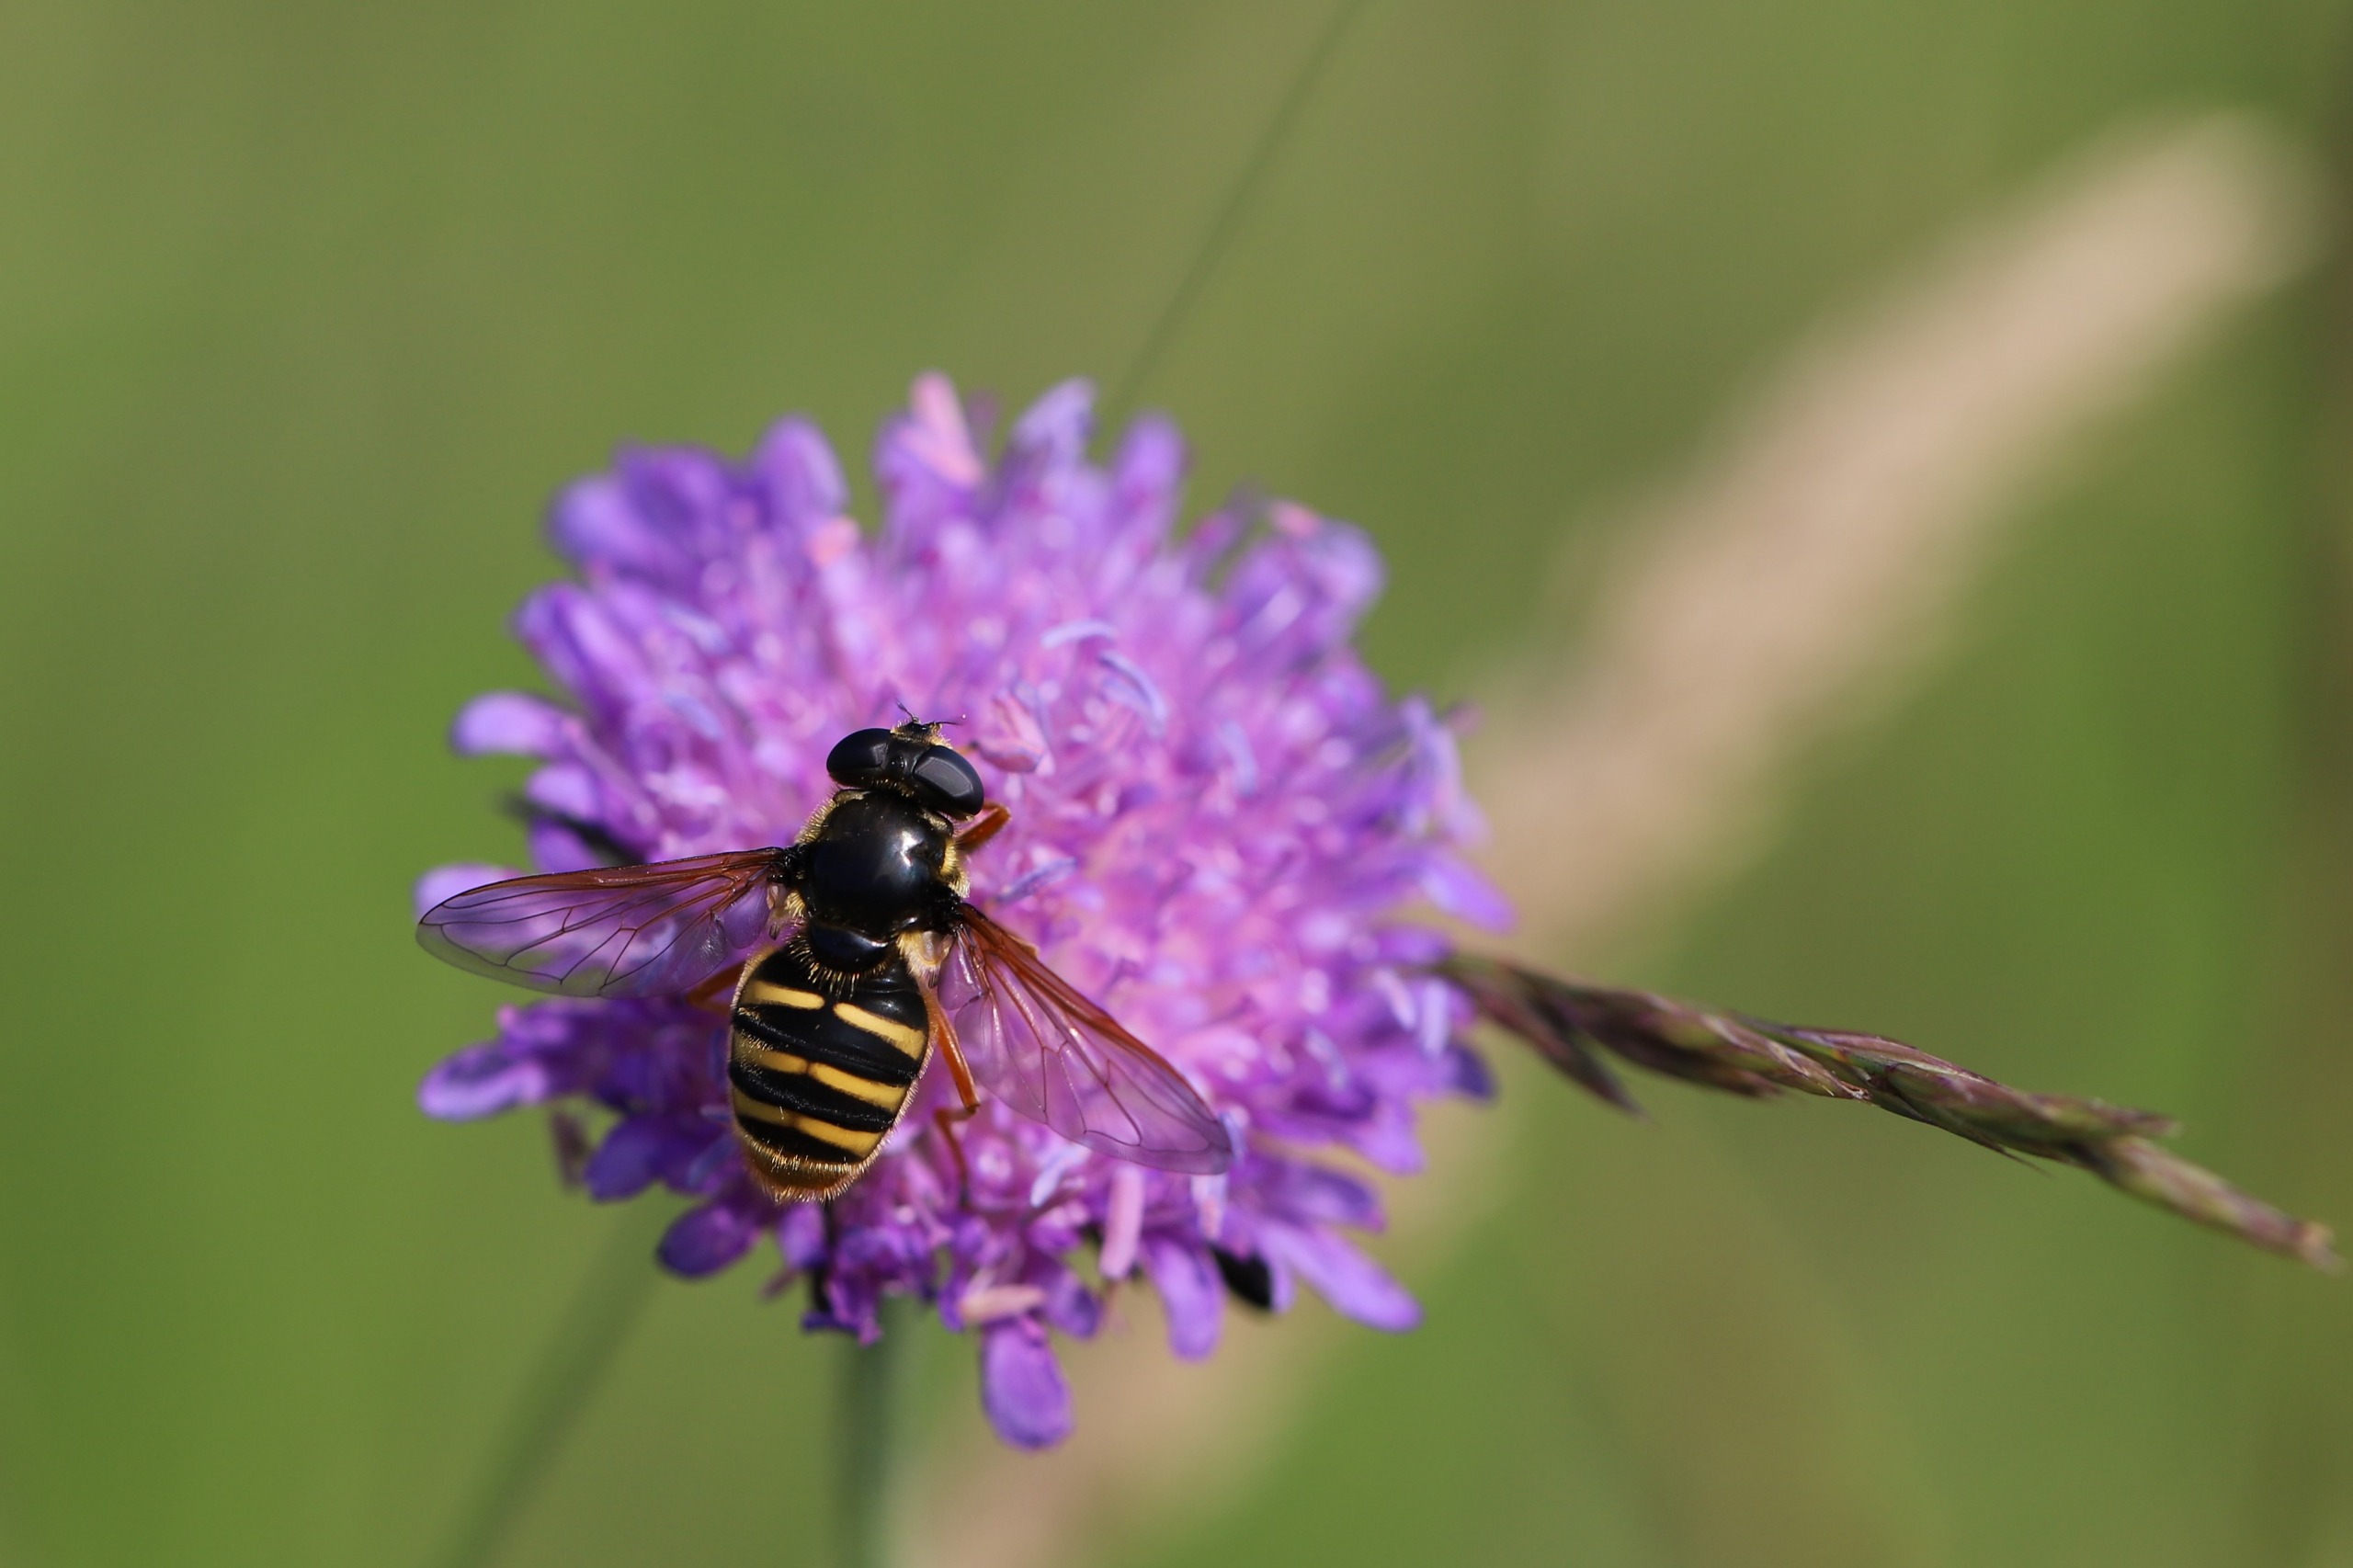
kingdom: Animalia
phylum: Arthropoda
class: Insecta
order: Diptera
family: Syrphidae
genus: Sericomyia
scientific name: Sericomyia silentis
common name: Tørve-silkesvirreflue
